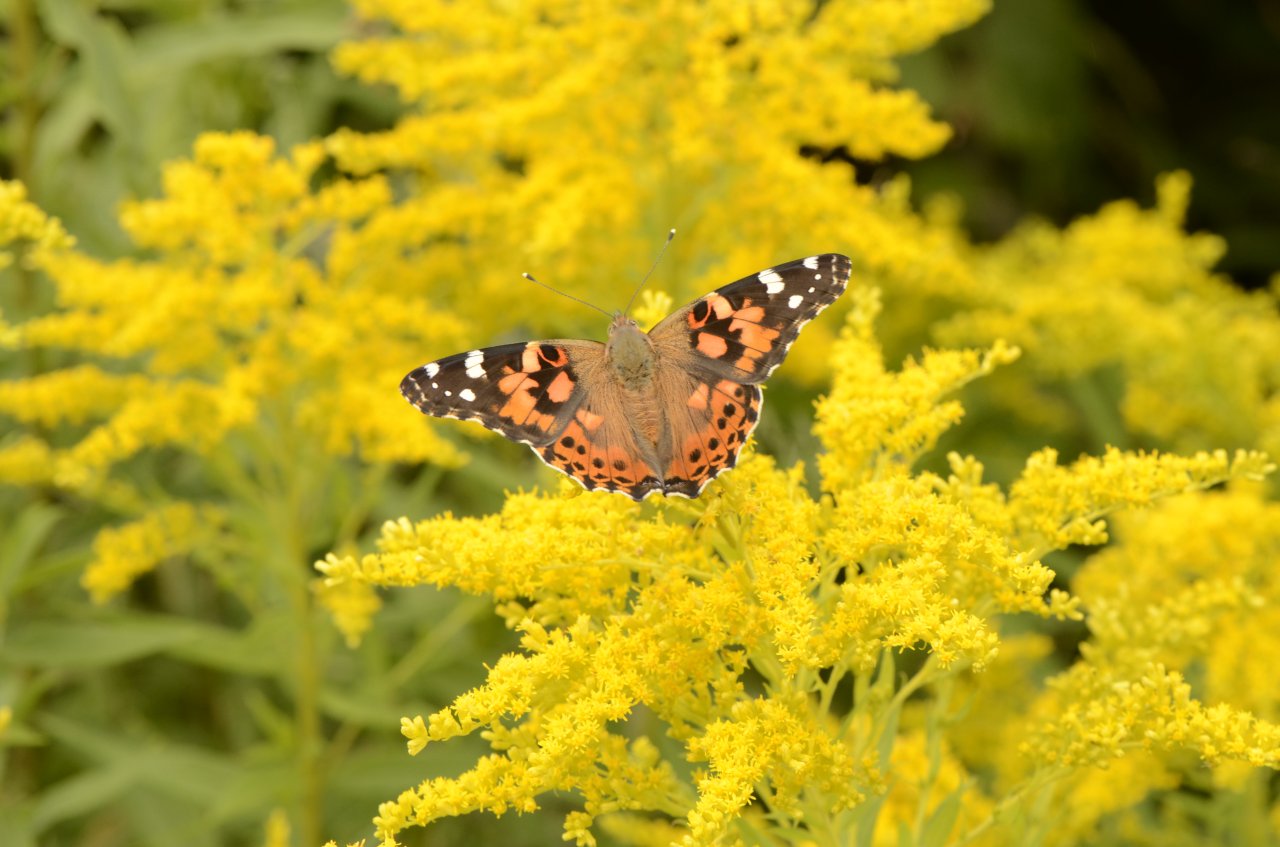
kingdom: Animalia
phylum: Arthropoda
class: Insecta
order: Lepidoptera
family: Nymphalidae
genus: Vanessa
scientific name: Vanessa cardui
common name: Painted Lady
